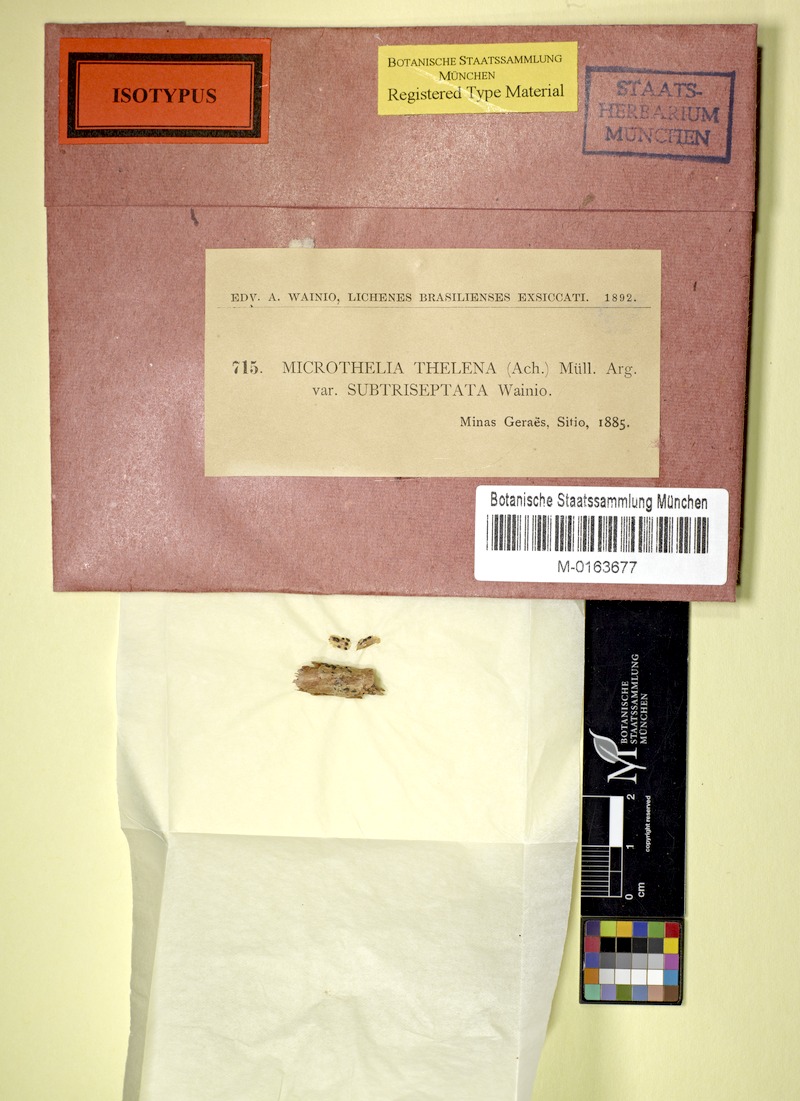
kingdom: Fungi
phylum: Ascomycota
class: Dothideomycetes
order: Trypetheliales
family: Trypetheliaceae
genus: Bogoriella
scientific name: Bogoriella thelena
